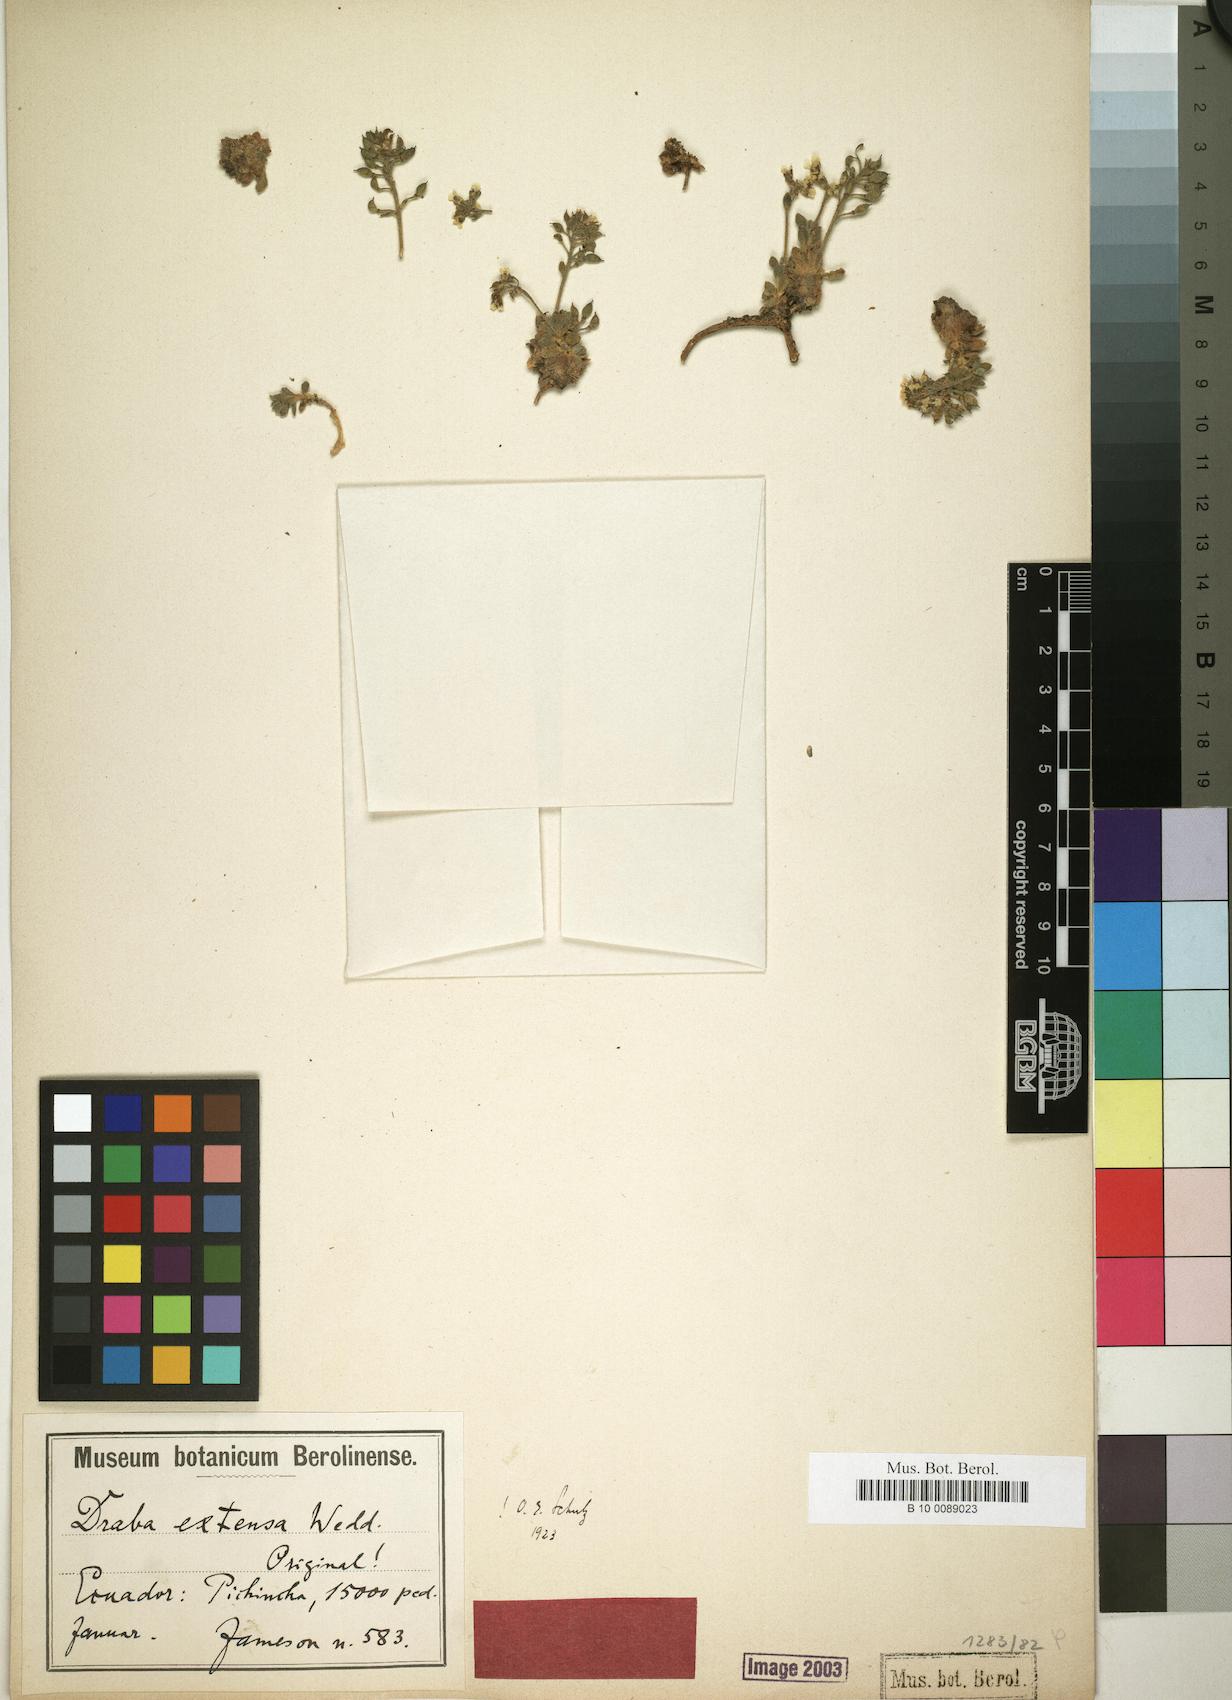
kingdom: Plantae
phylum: Tracheophyta
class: Magnoliopsida
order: Brassicales
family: Brassicaceae
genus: Draba
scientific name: Draba extensa
